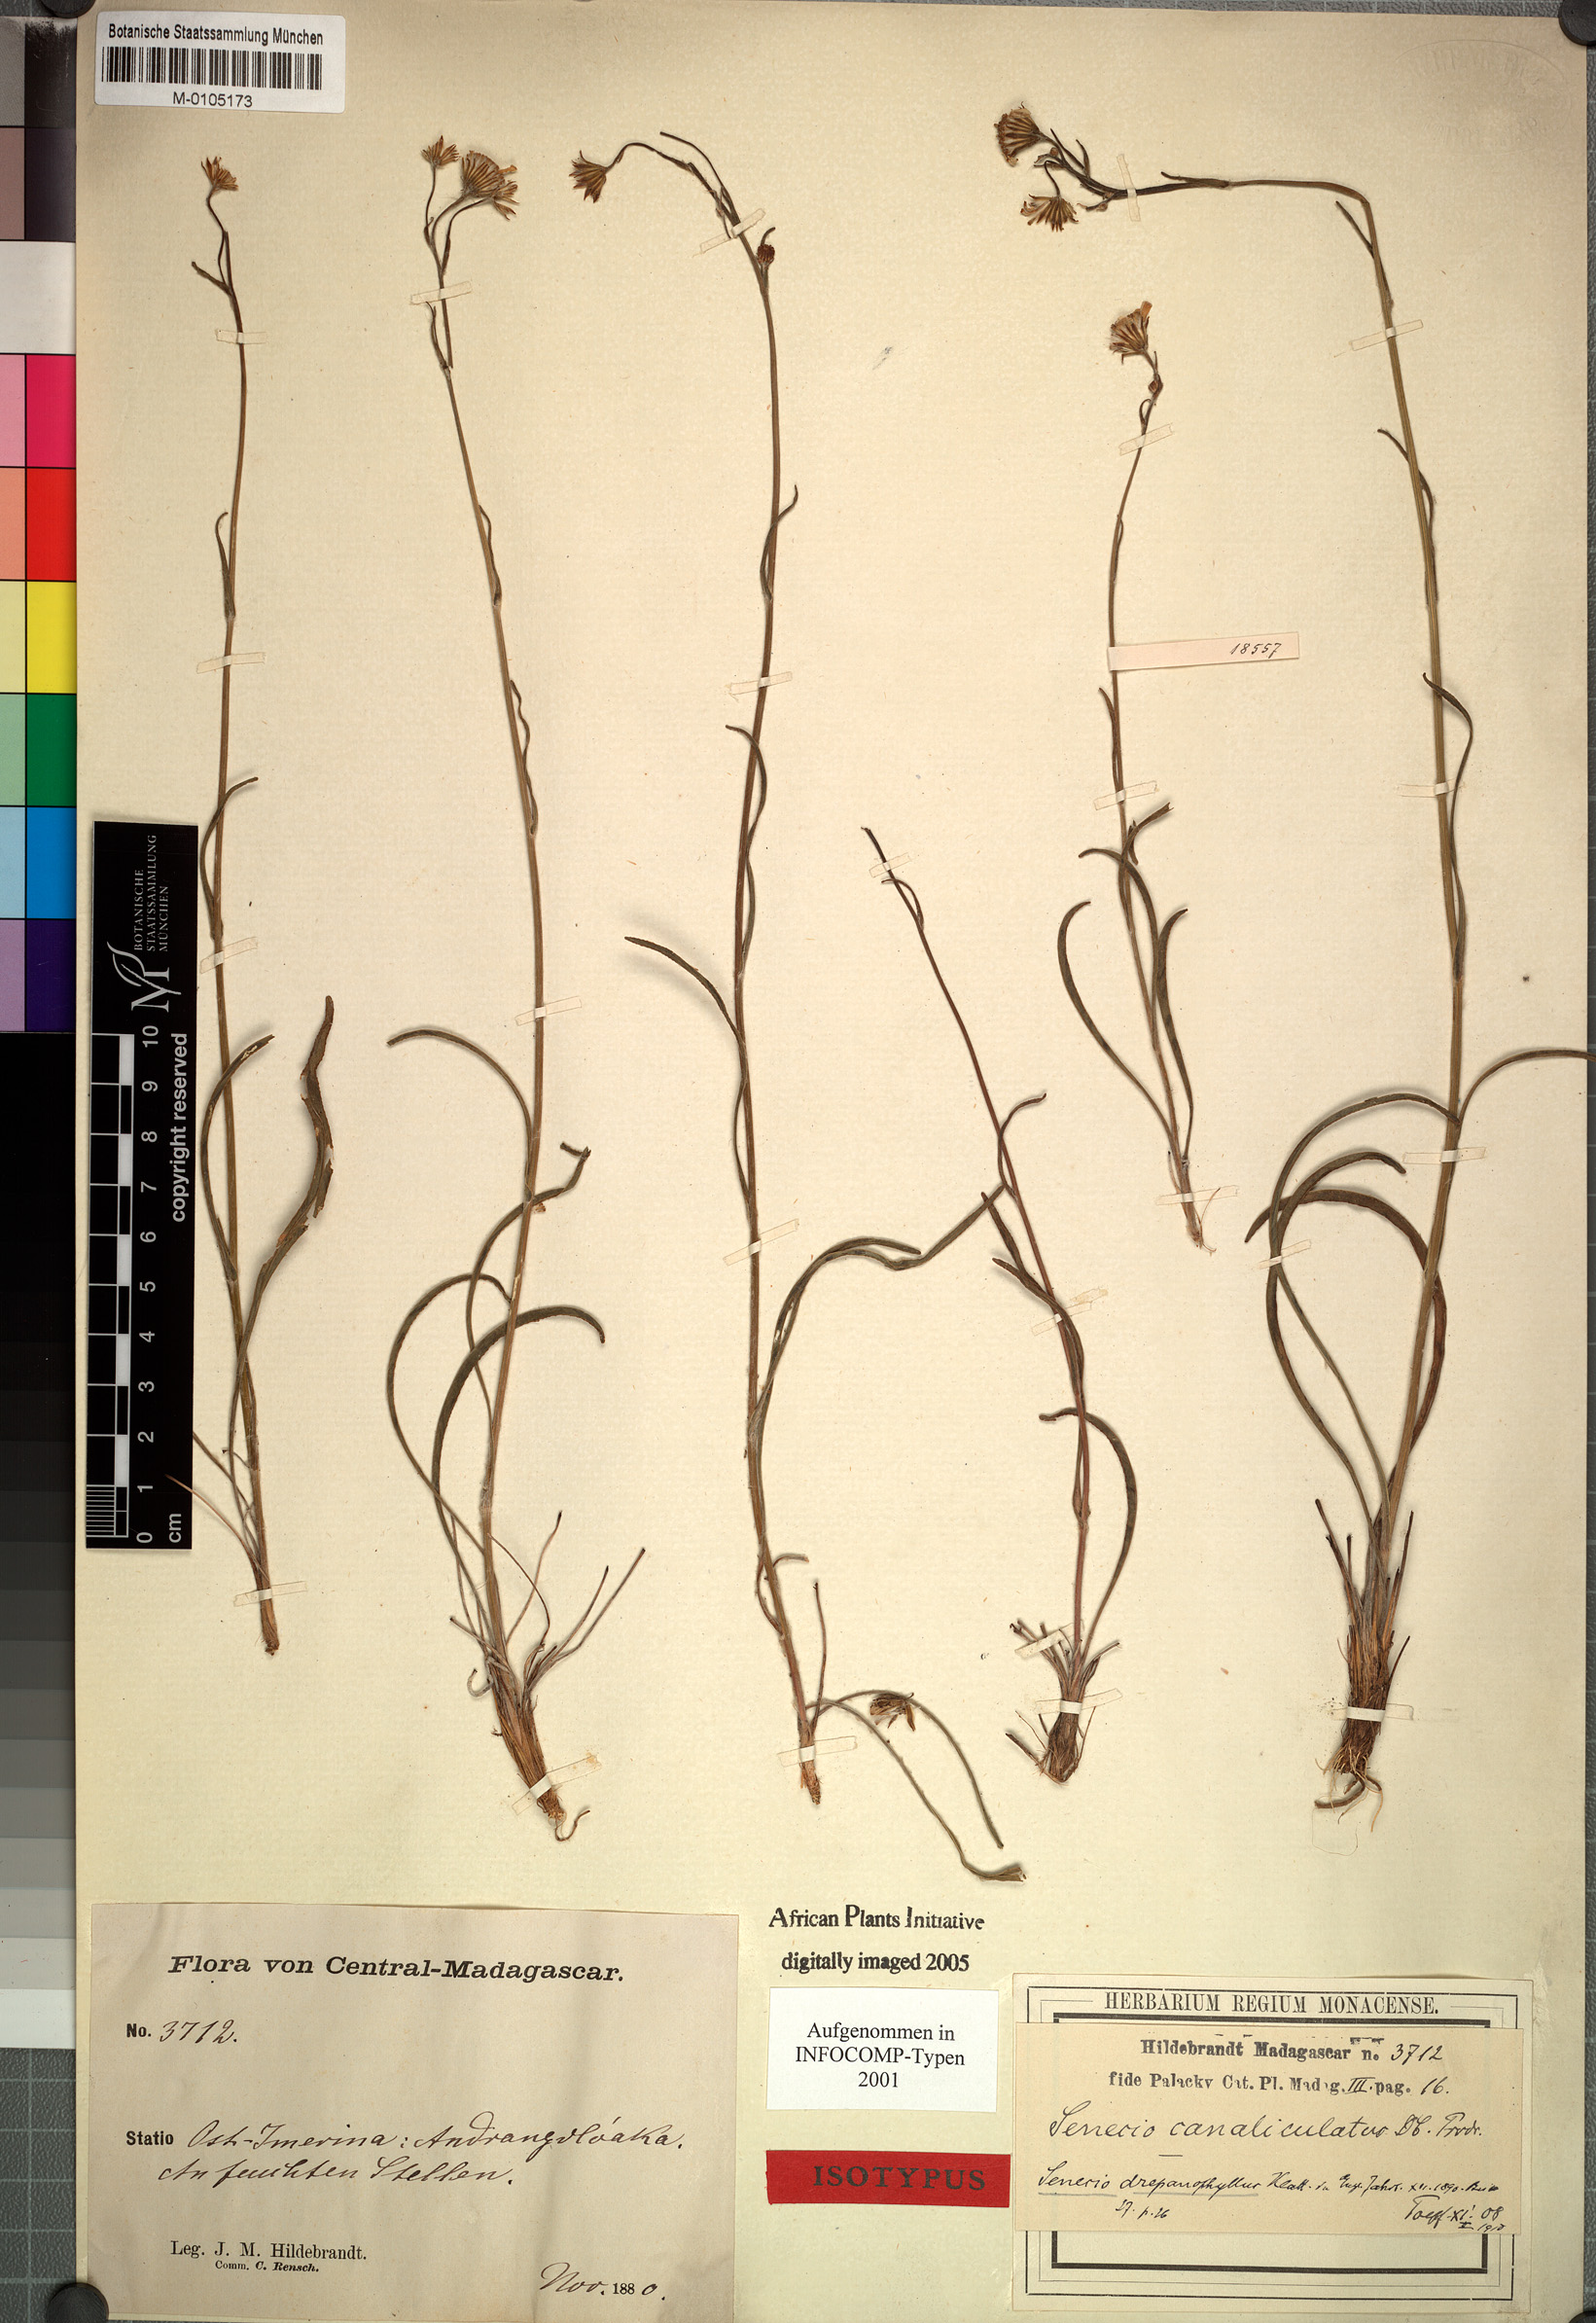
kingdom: Plantae
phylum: Tracheophyta
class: Magnoliopsida
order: Asterales
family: Asteraceae
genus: Senecio
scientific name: Senecio emirnensis
